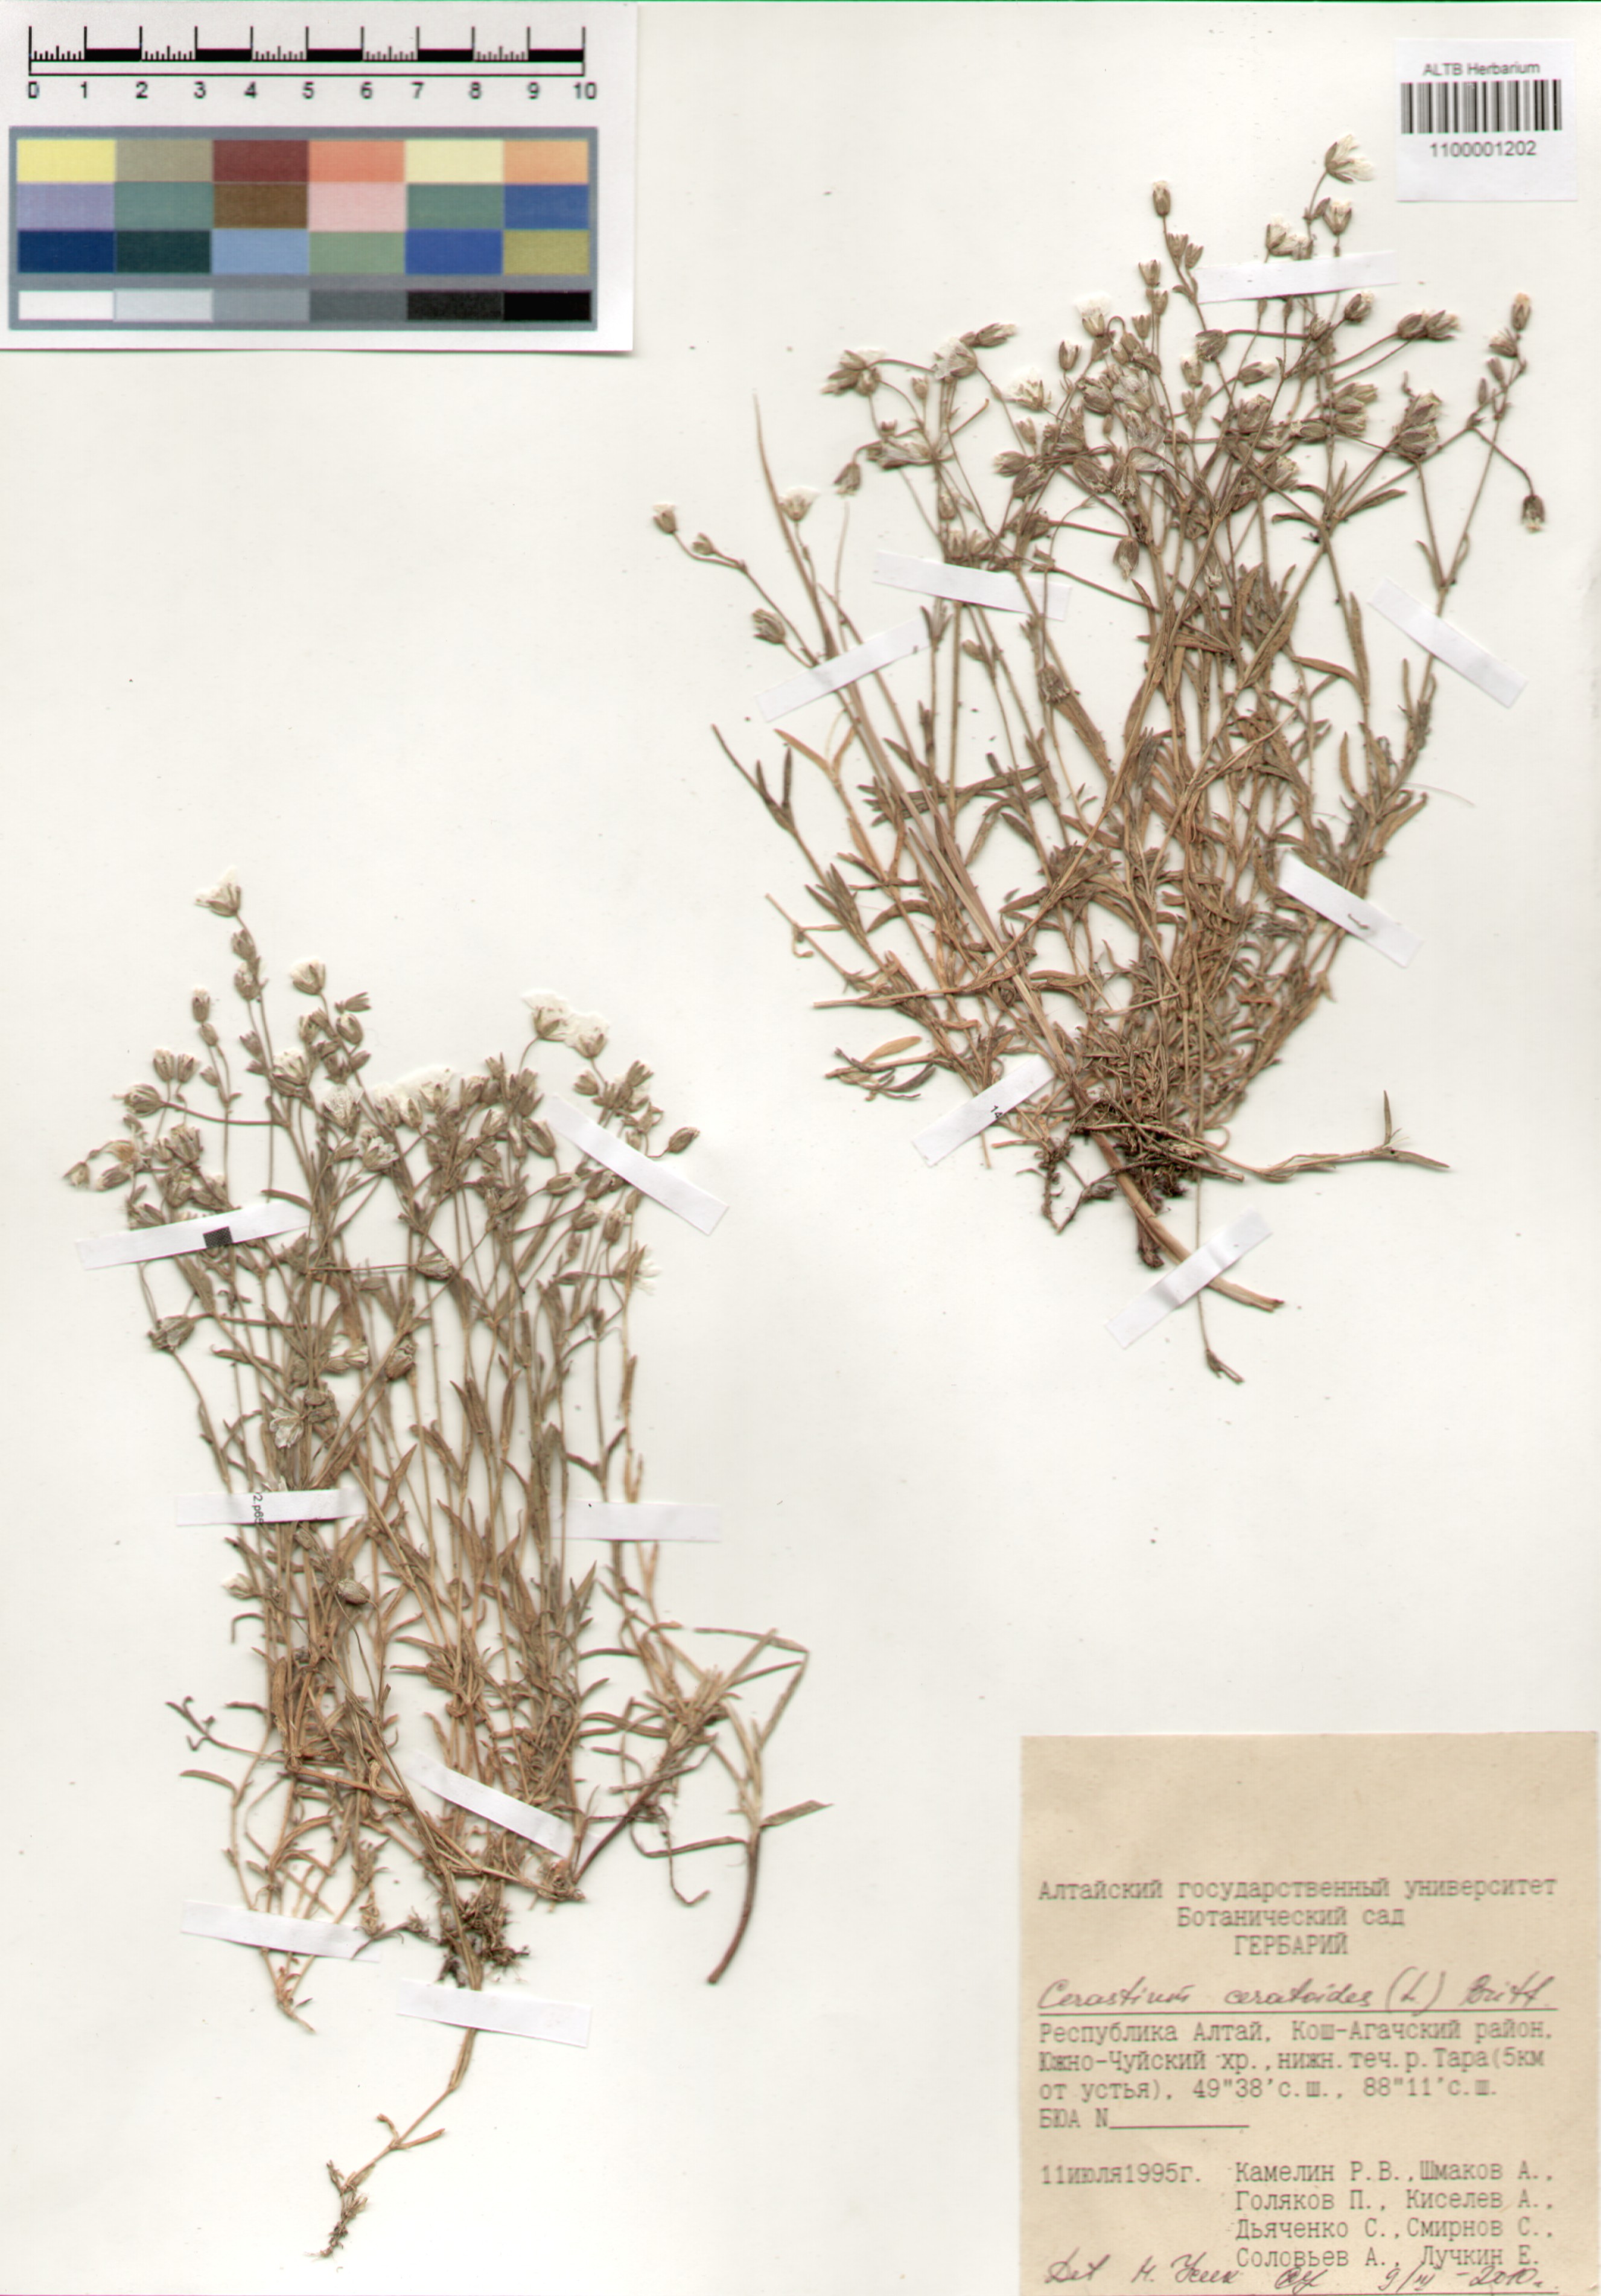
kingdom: Plantae
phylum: Tracheophyta
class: Magnoliopsida
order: Caryophyllales
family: Caryophyllaceae
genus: Dichodon
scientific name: Dichodon cerastoides
